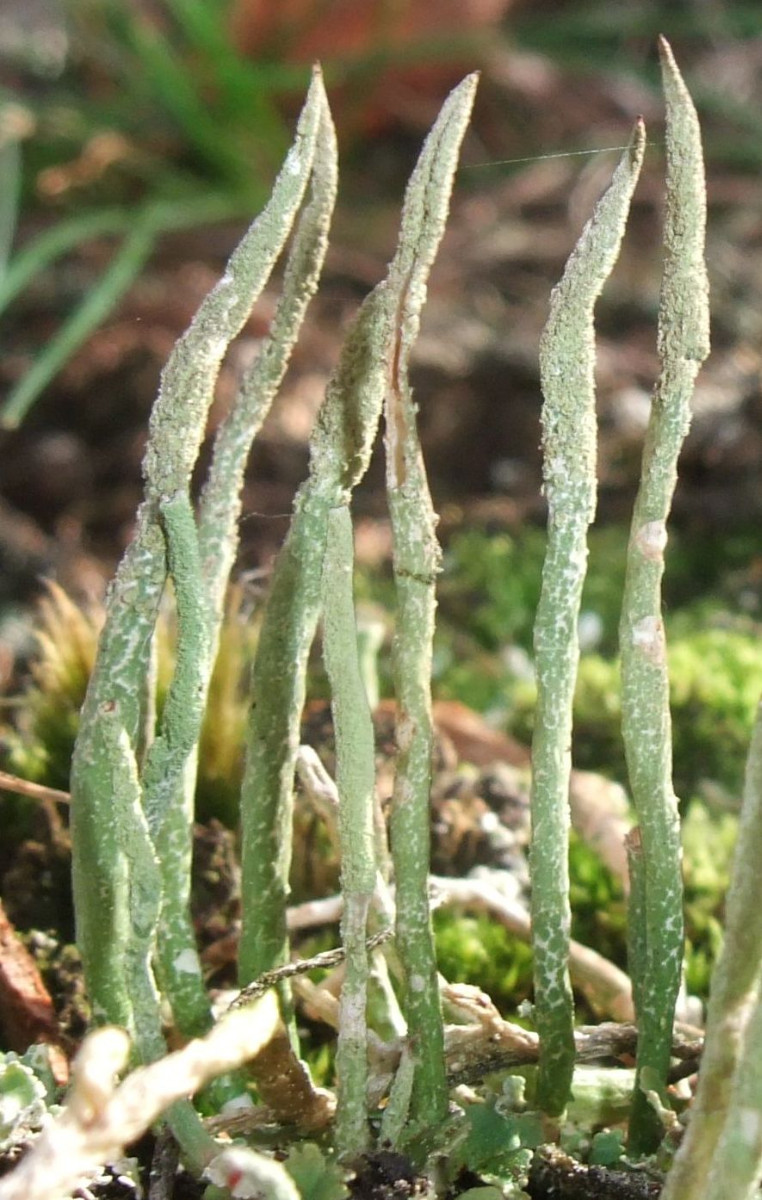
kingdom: Fungi
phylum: Ascomycota
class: Lecanoromycetes
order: Lecanorales
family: Cladoniaceae
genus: Cladonia
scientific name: Cladonia cornuta
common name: syl-bægerlav
